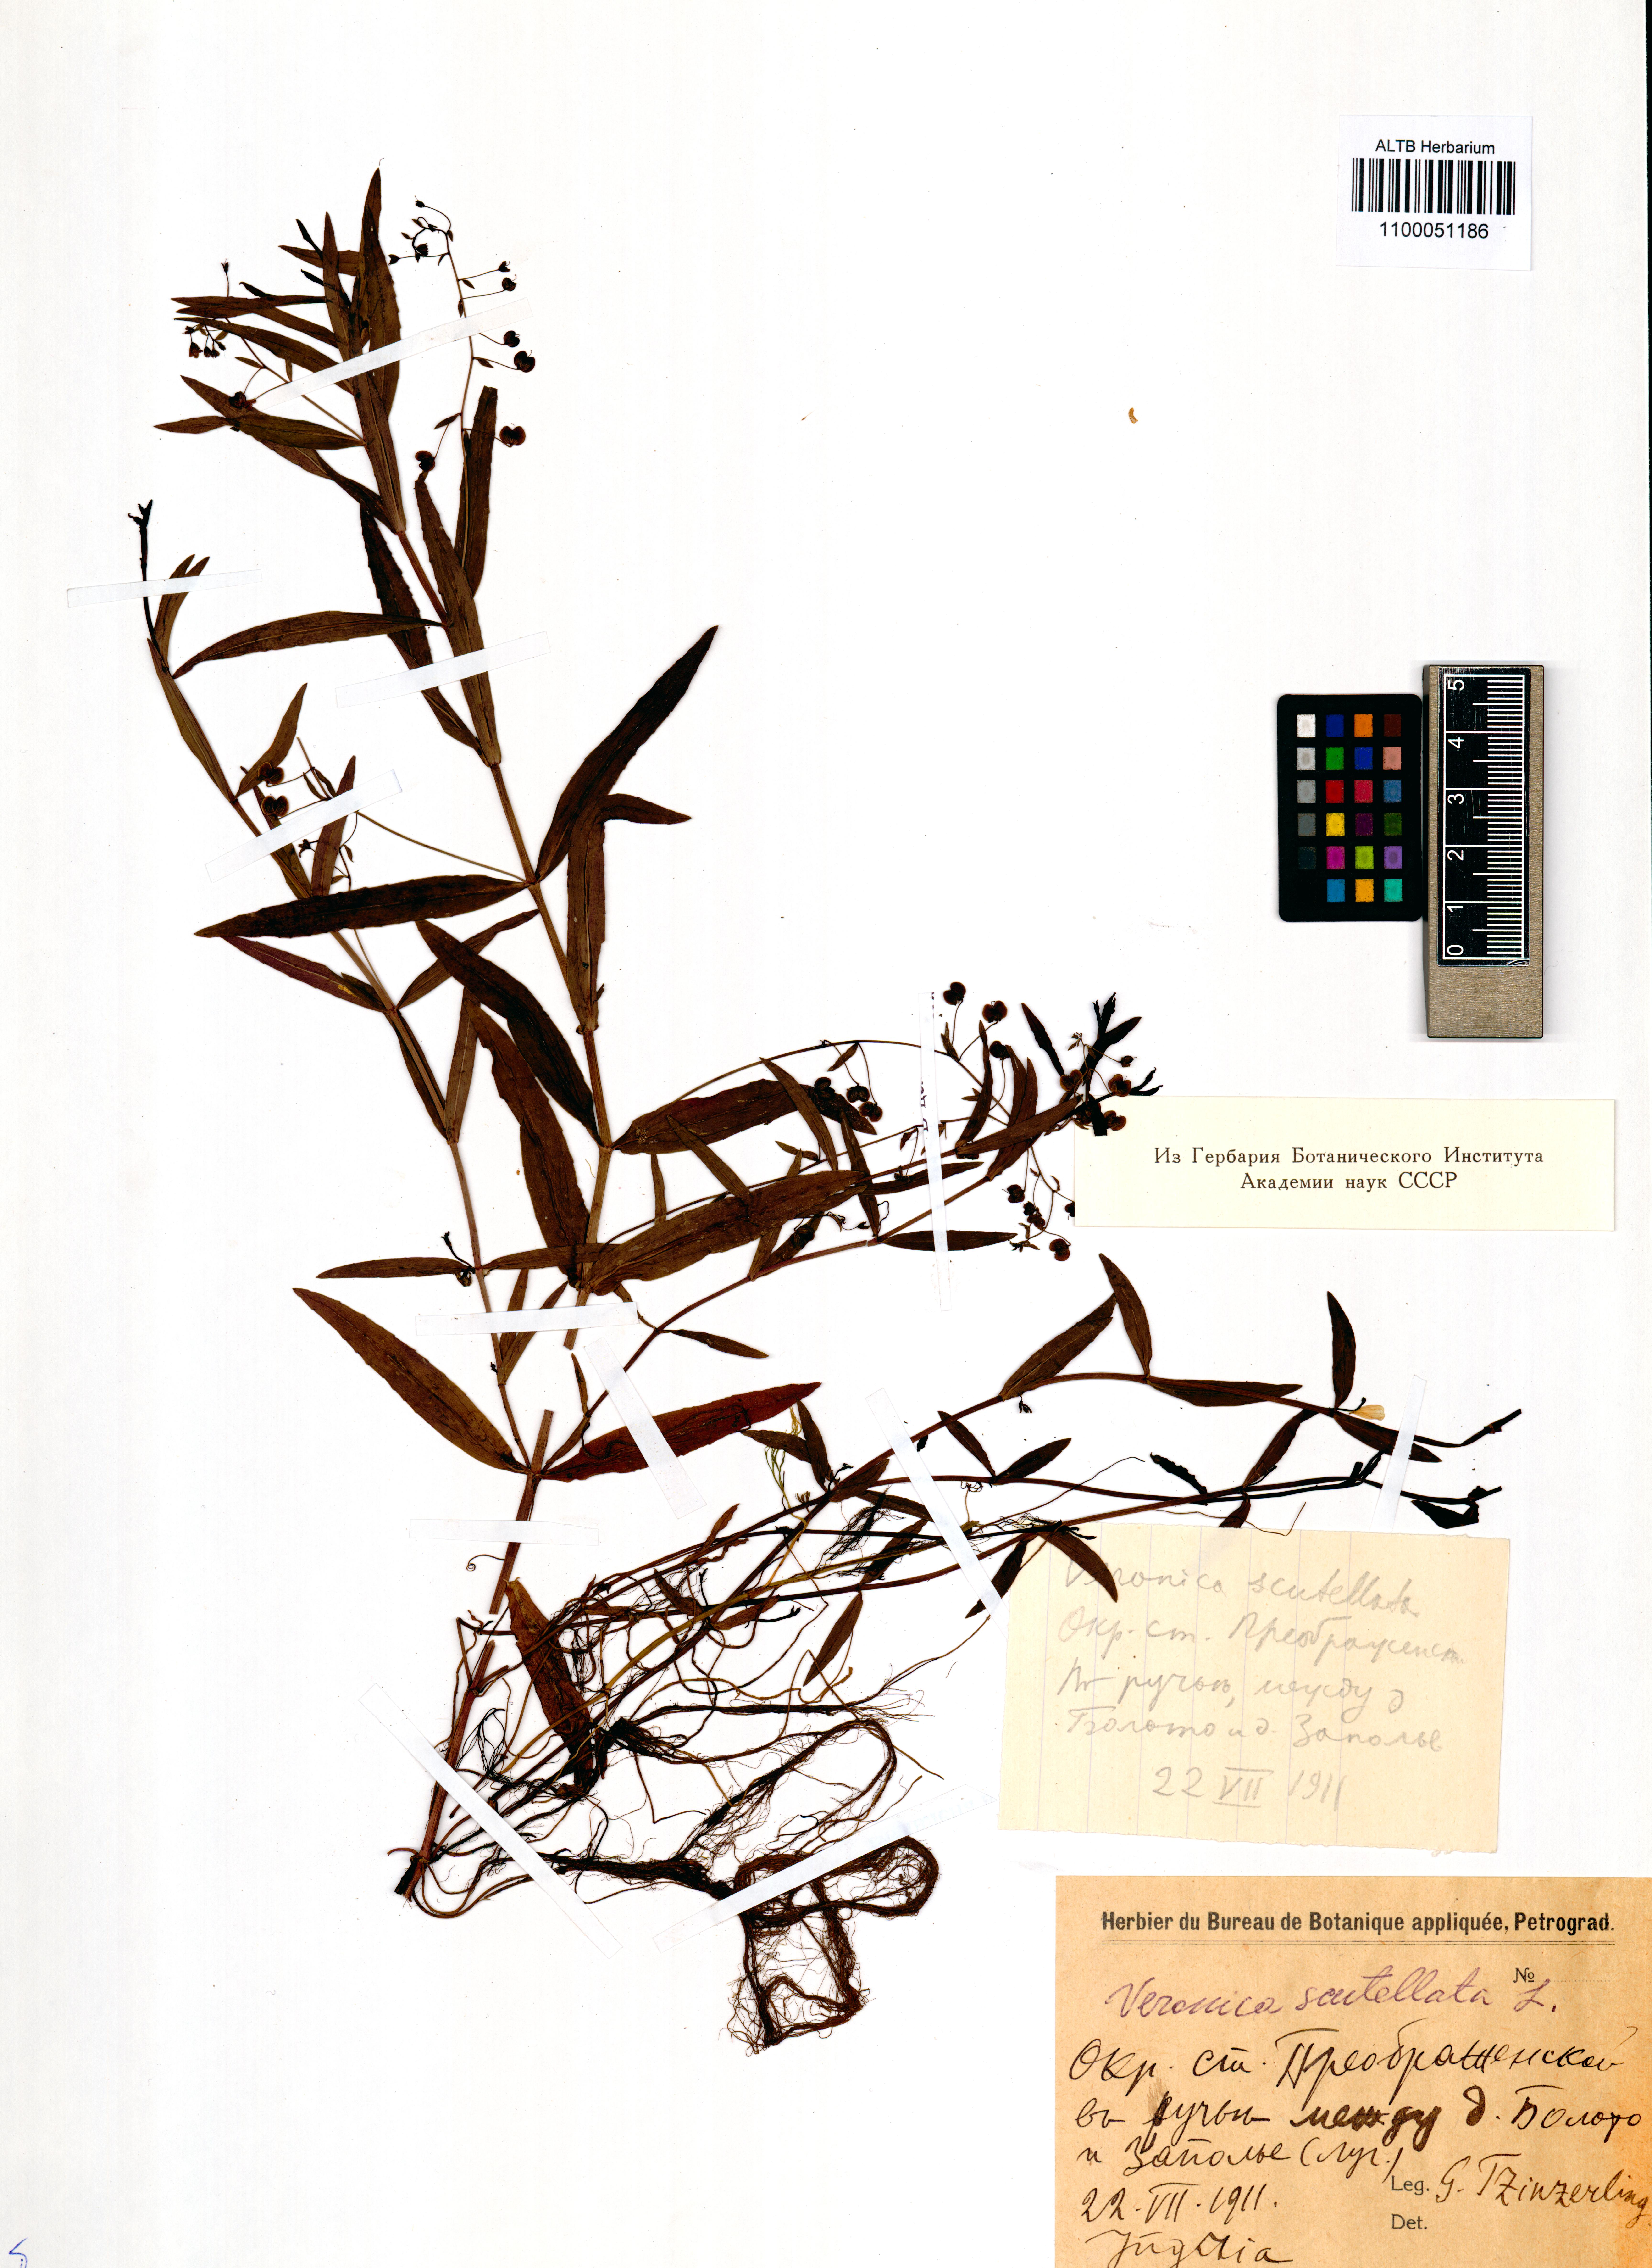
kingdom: Plantae
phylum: Tracheophyta
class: Magnoliopsida
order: Lamiales
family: Plantaginaceae
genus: Veronica
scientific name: Veronica scutellata
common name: Marsh speedwell
